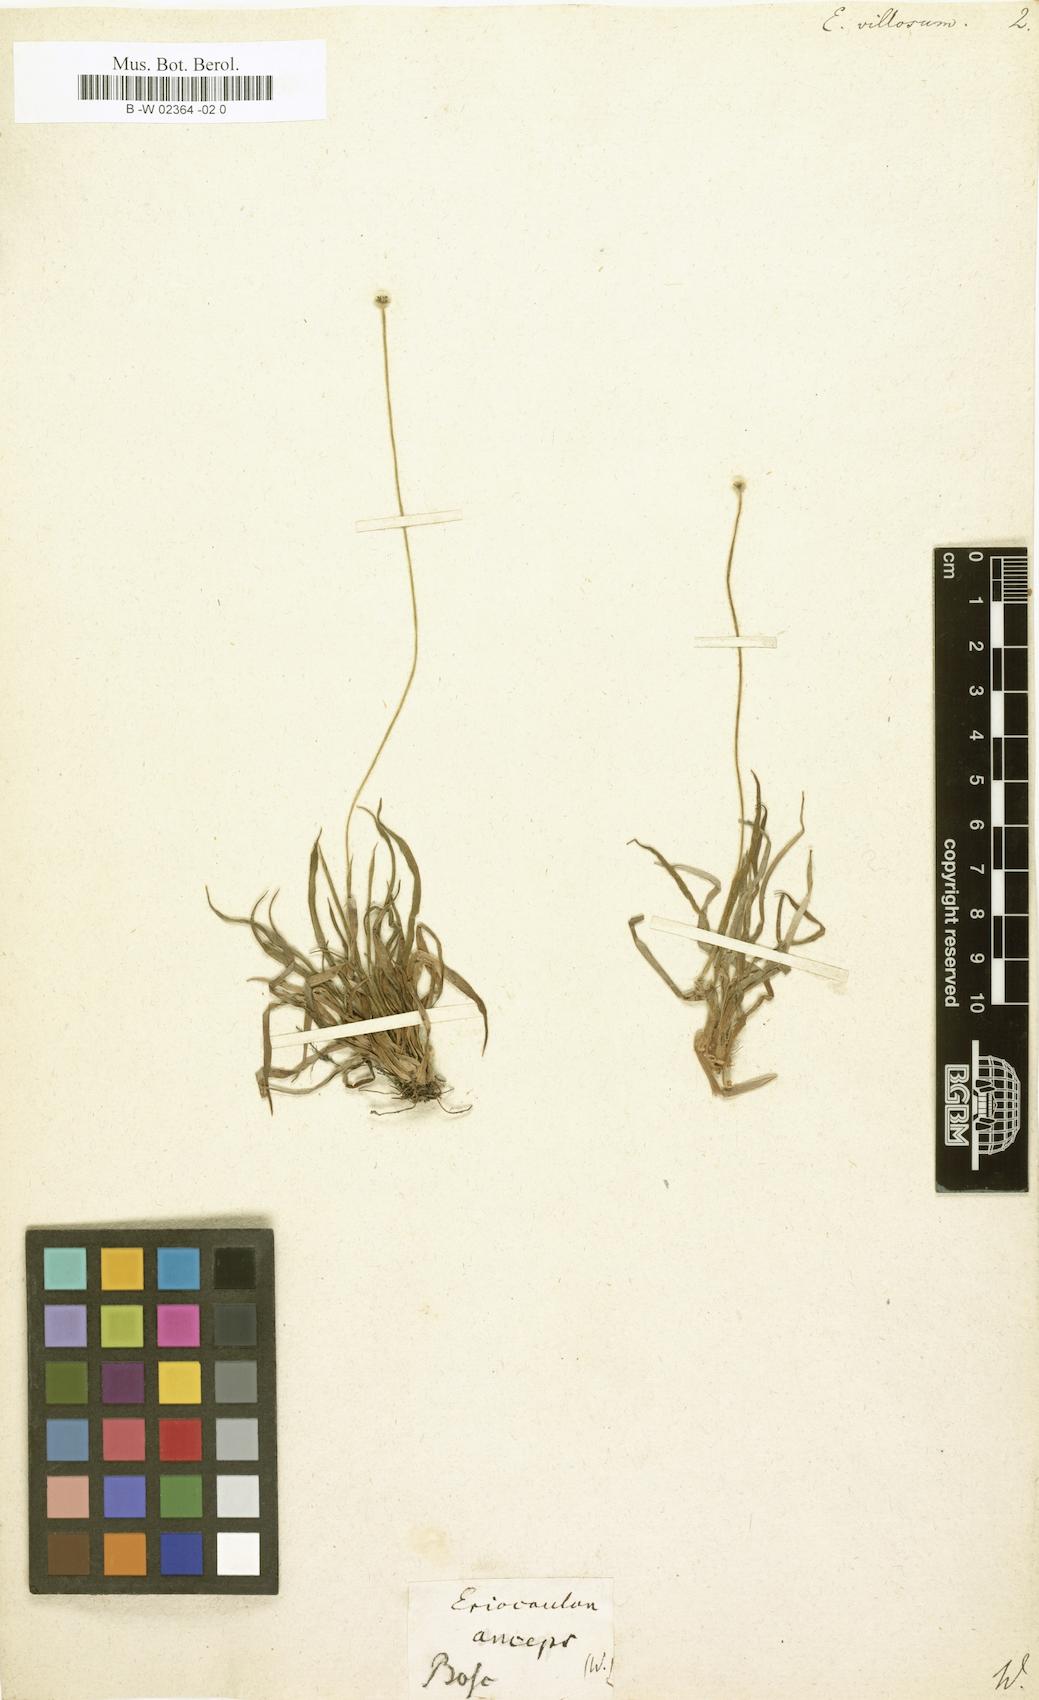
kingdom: Plantae
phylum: Tracheophyta
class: Liliopsida
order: Poales
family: Eriocaulaceae
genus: Paepalanthus
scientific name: Paepalanthus anceps
